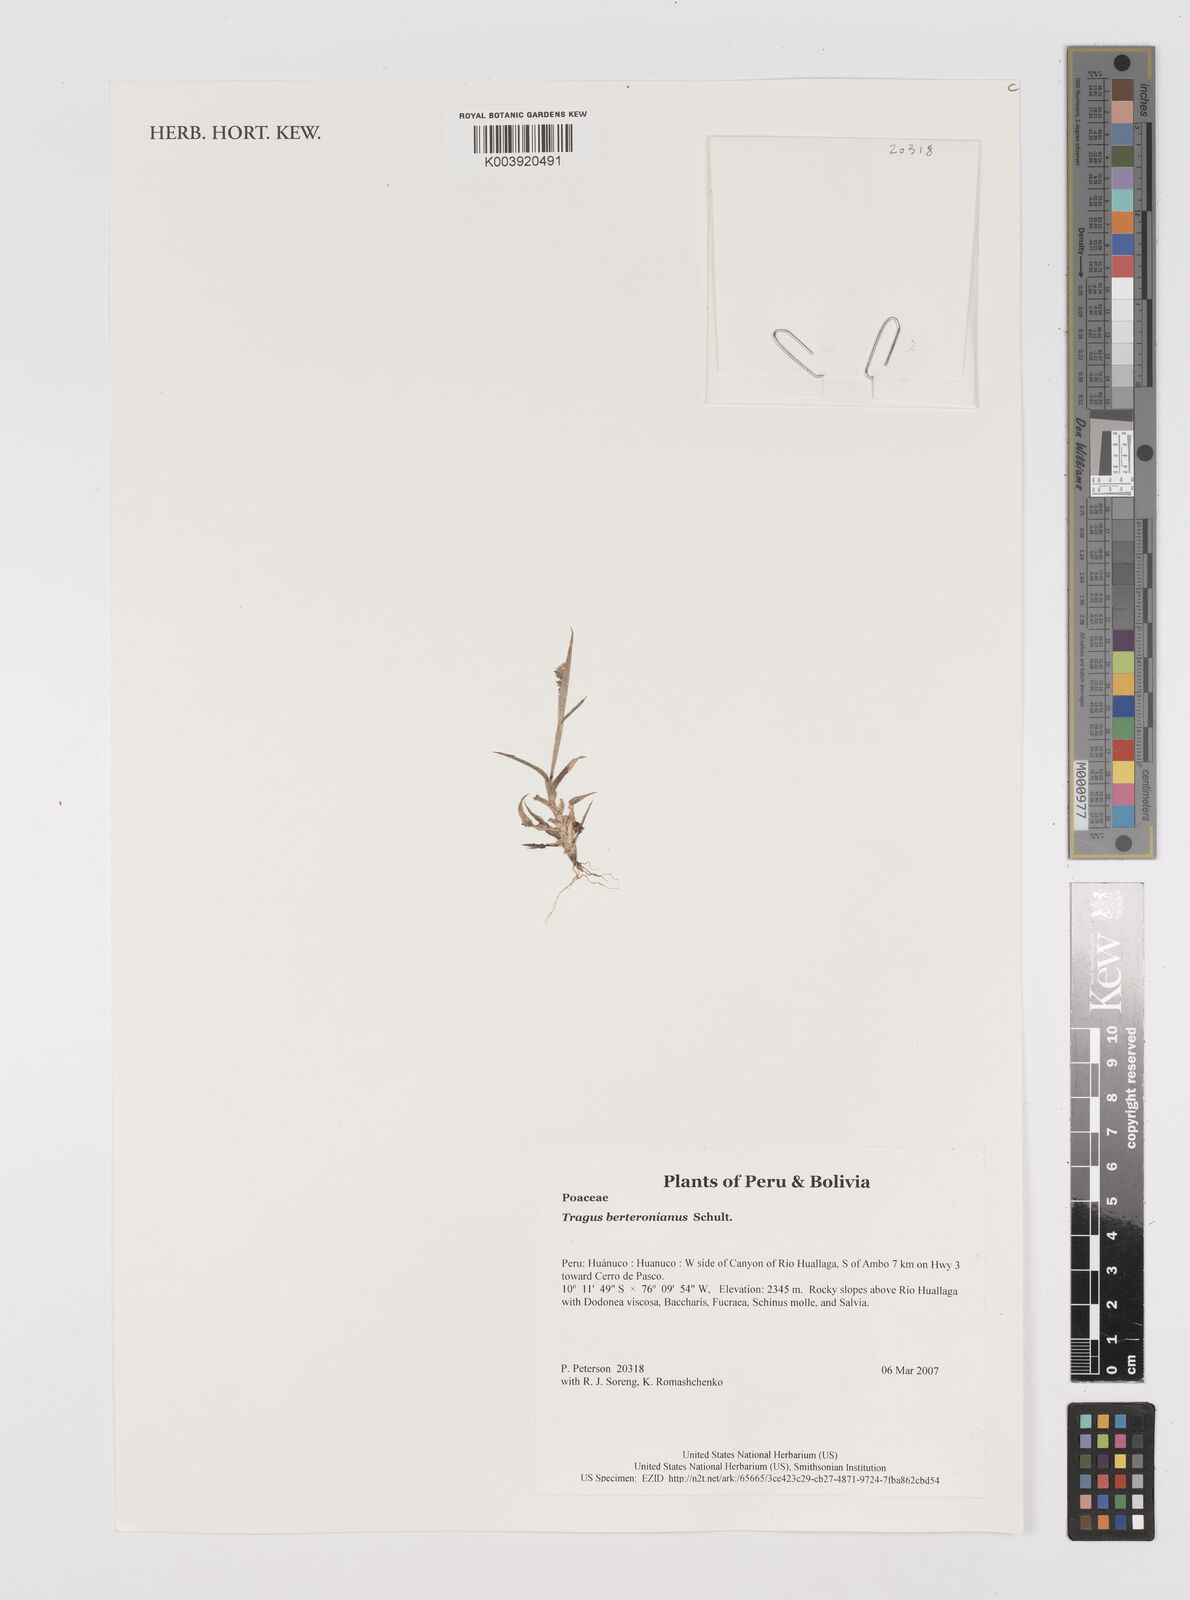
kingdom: Plantae
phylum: Tracheophyta
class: Liliopsida
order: Poales
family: Poaceae
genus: Tragus
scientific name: Tragus berteronianus
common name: African bur-grass
